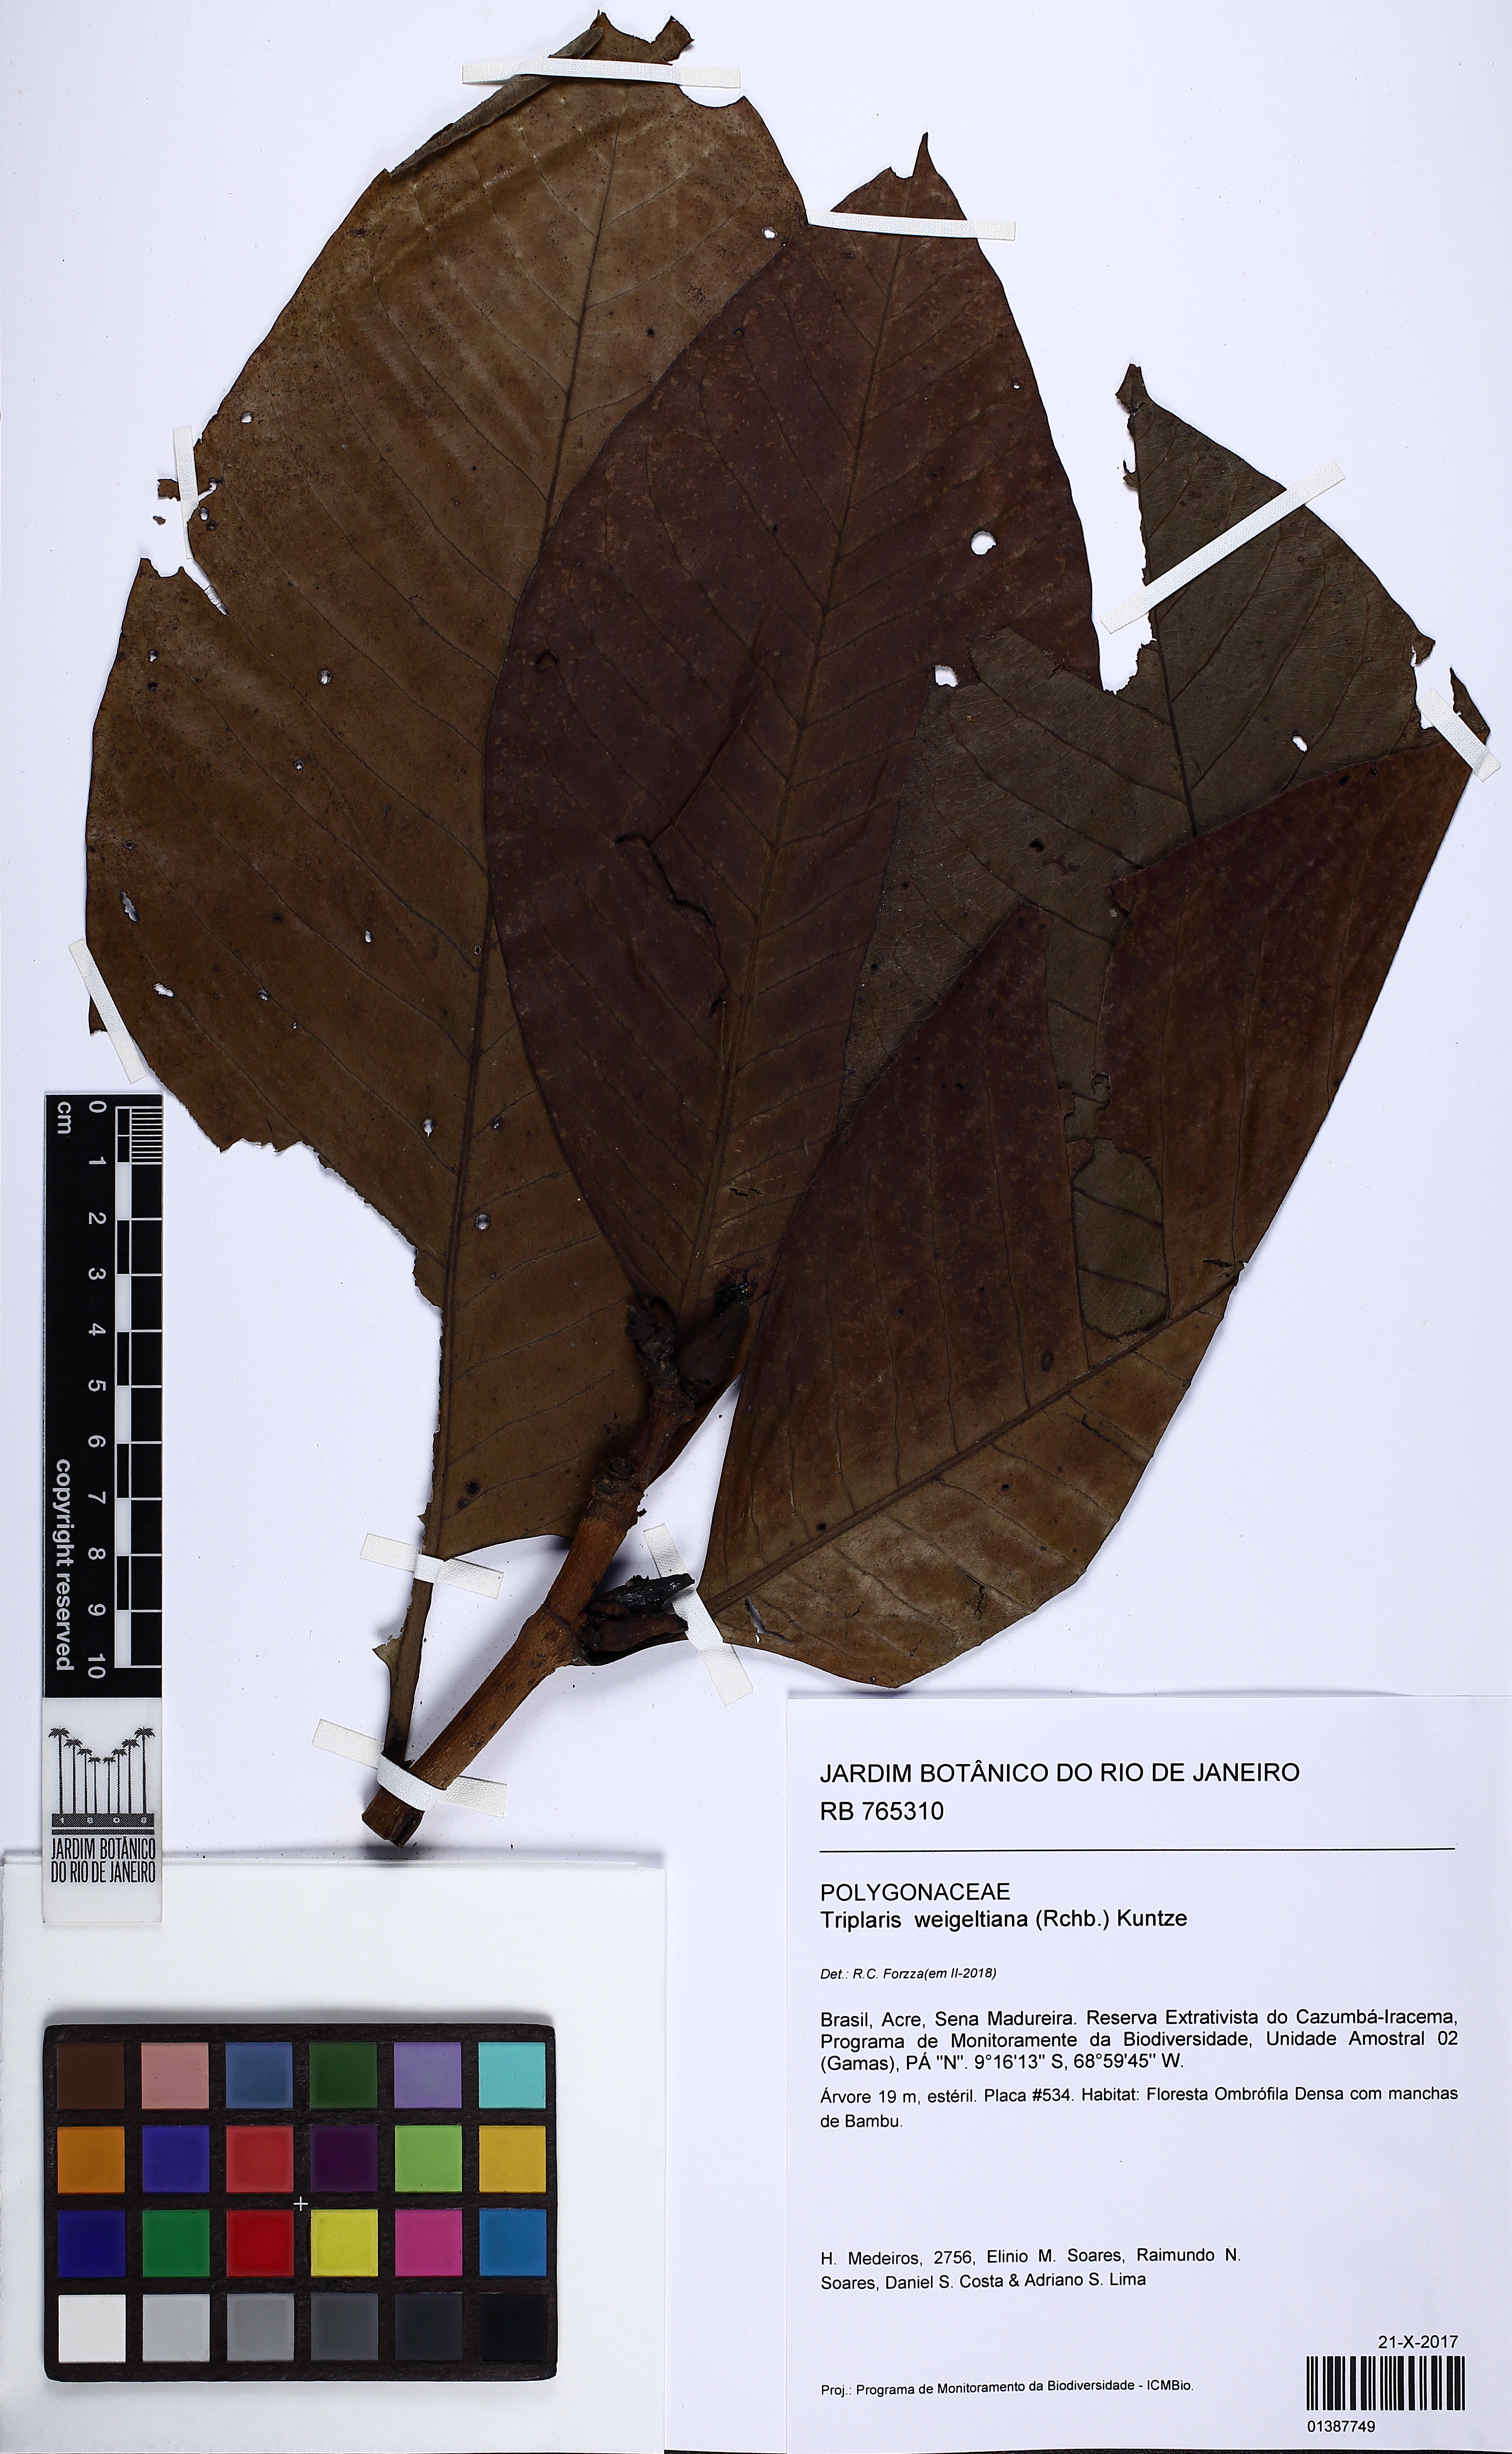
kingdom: Plantae
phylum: Tracheophyta
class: Magnoliopsida
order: Caryophyllales
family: Polygonaceae
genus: Triplaris
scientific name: Triplaris weigeltiana
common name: Long john
